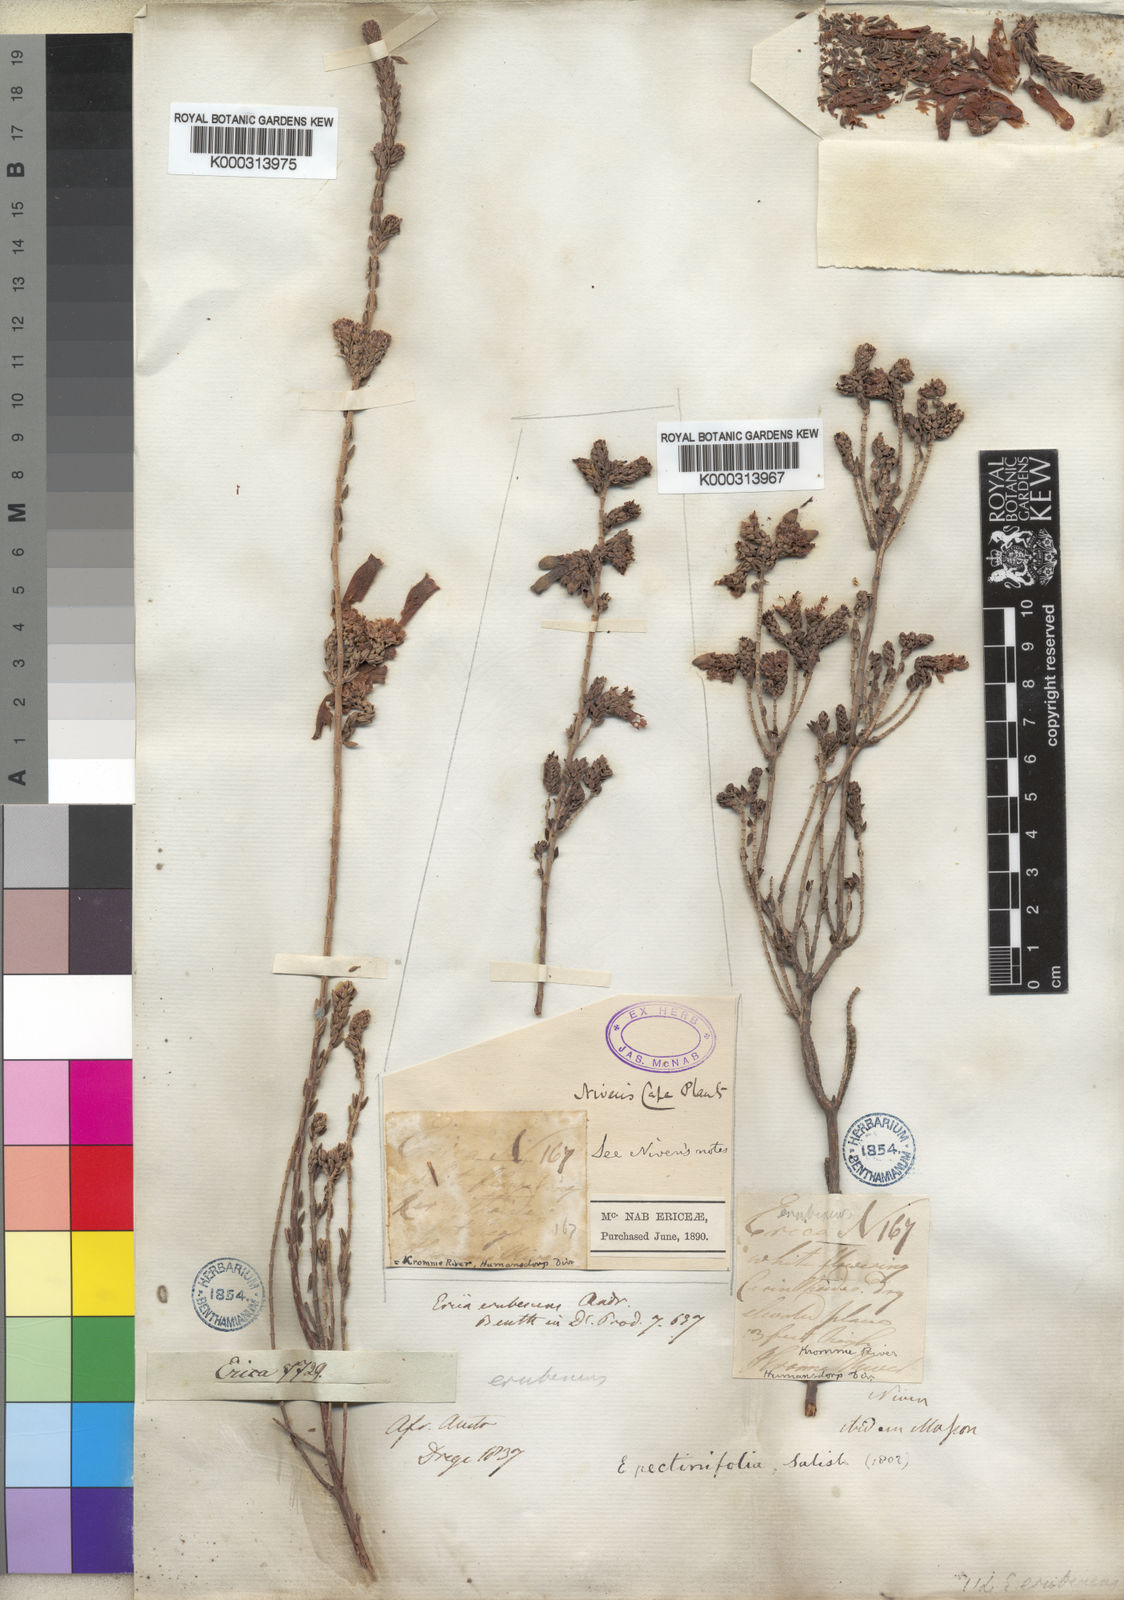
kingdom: Plantae
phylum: Tracheophyta
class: Magnoliopsida
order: Ericales
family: Ericaceae
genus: Erica
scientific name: Erica pectinifolia
